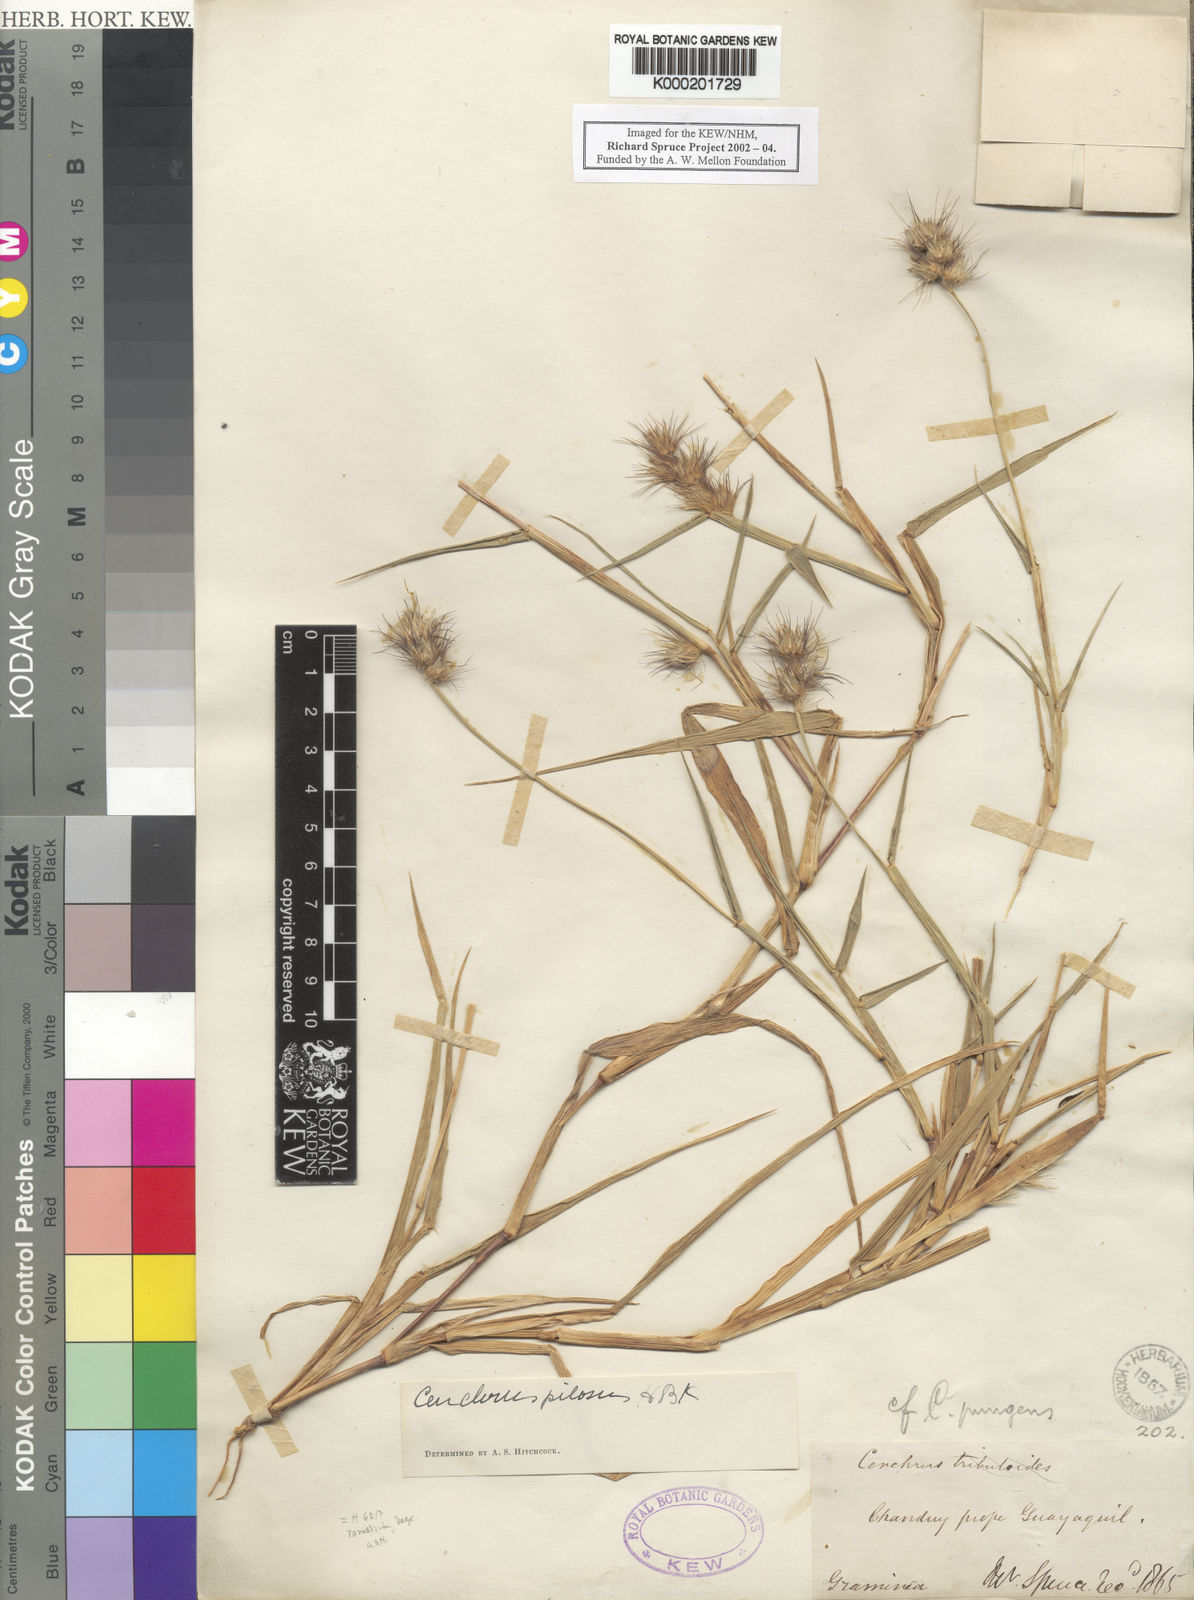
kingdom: Plantae
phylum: Tracheophyta
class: Liliopsida
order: Poales
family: Poaceae
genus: Cenchrus
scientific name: Cenchrus pilosus
